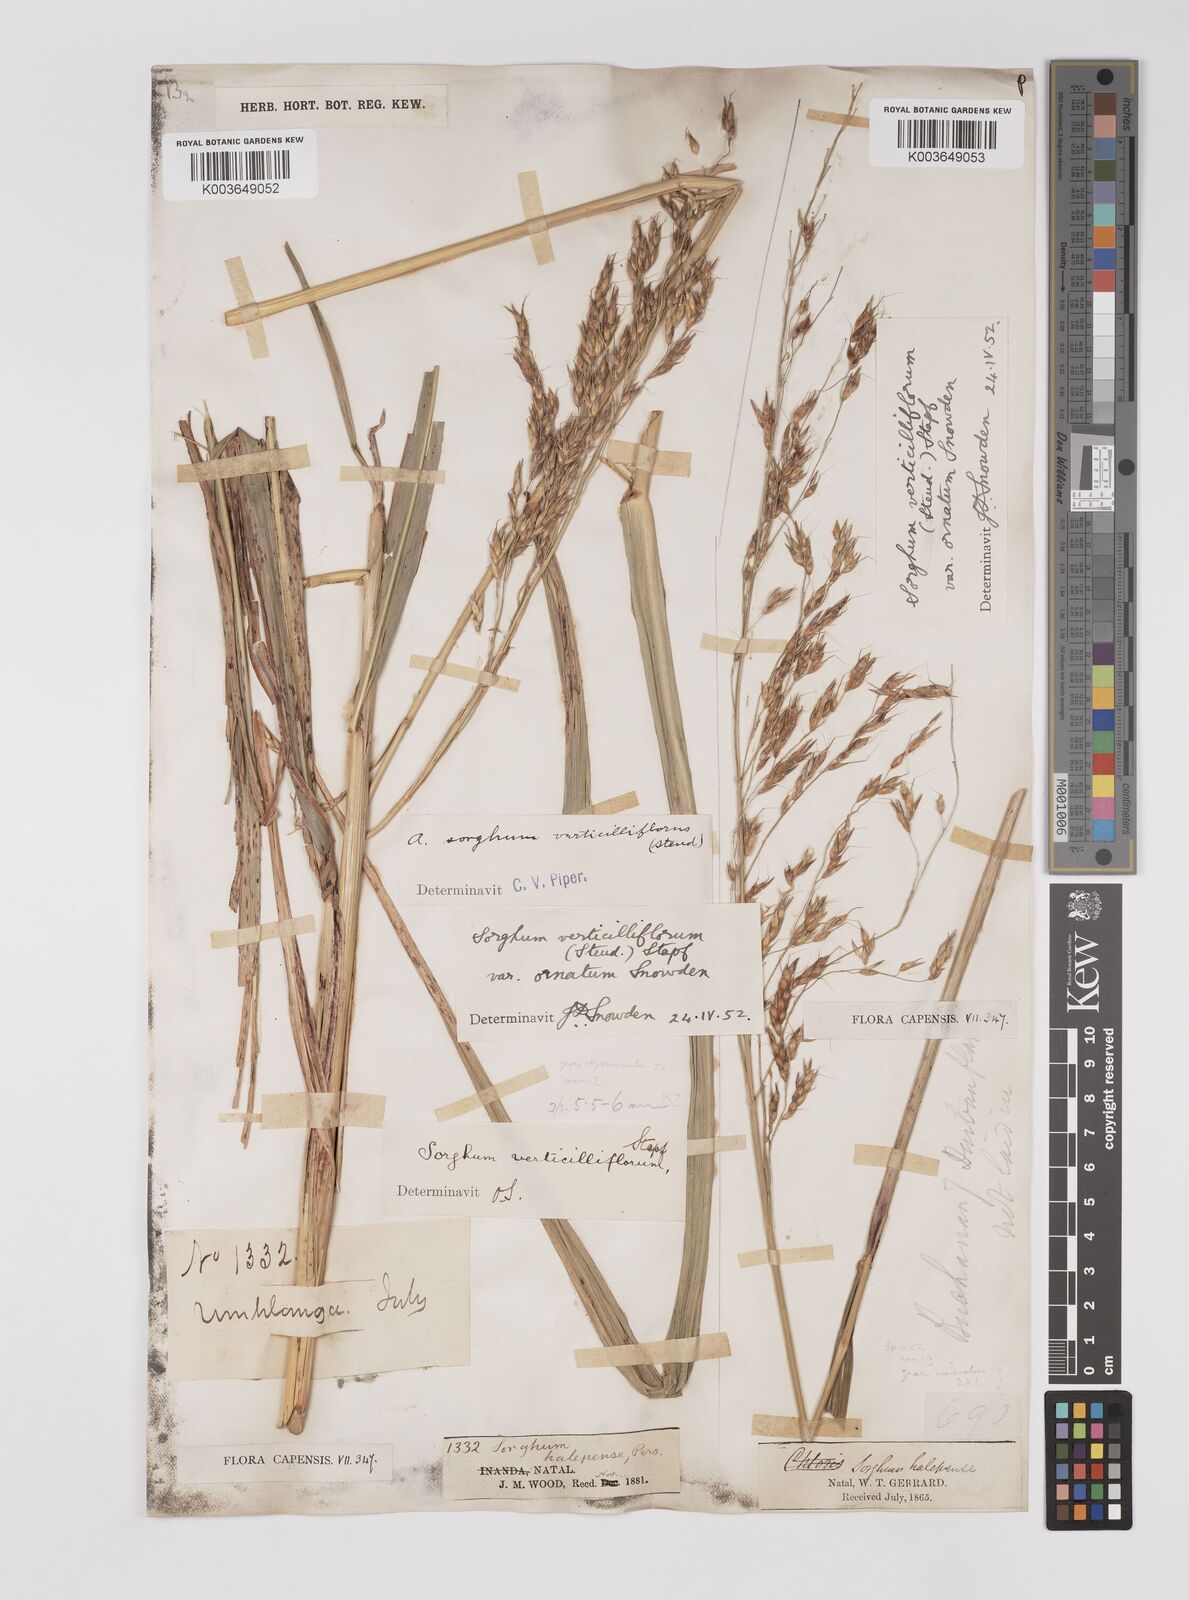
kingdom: Plantae
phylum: Tracheophyta
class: Liliopsida
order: Poales
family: Poaceae
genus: Sorghum
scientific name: Sorghum arundinaceum
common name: Sorghum
